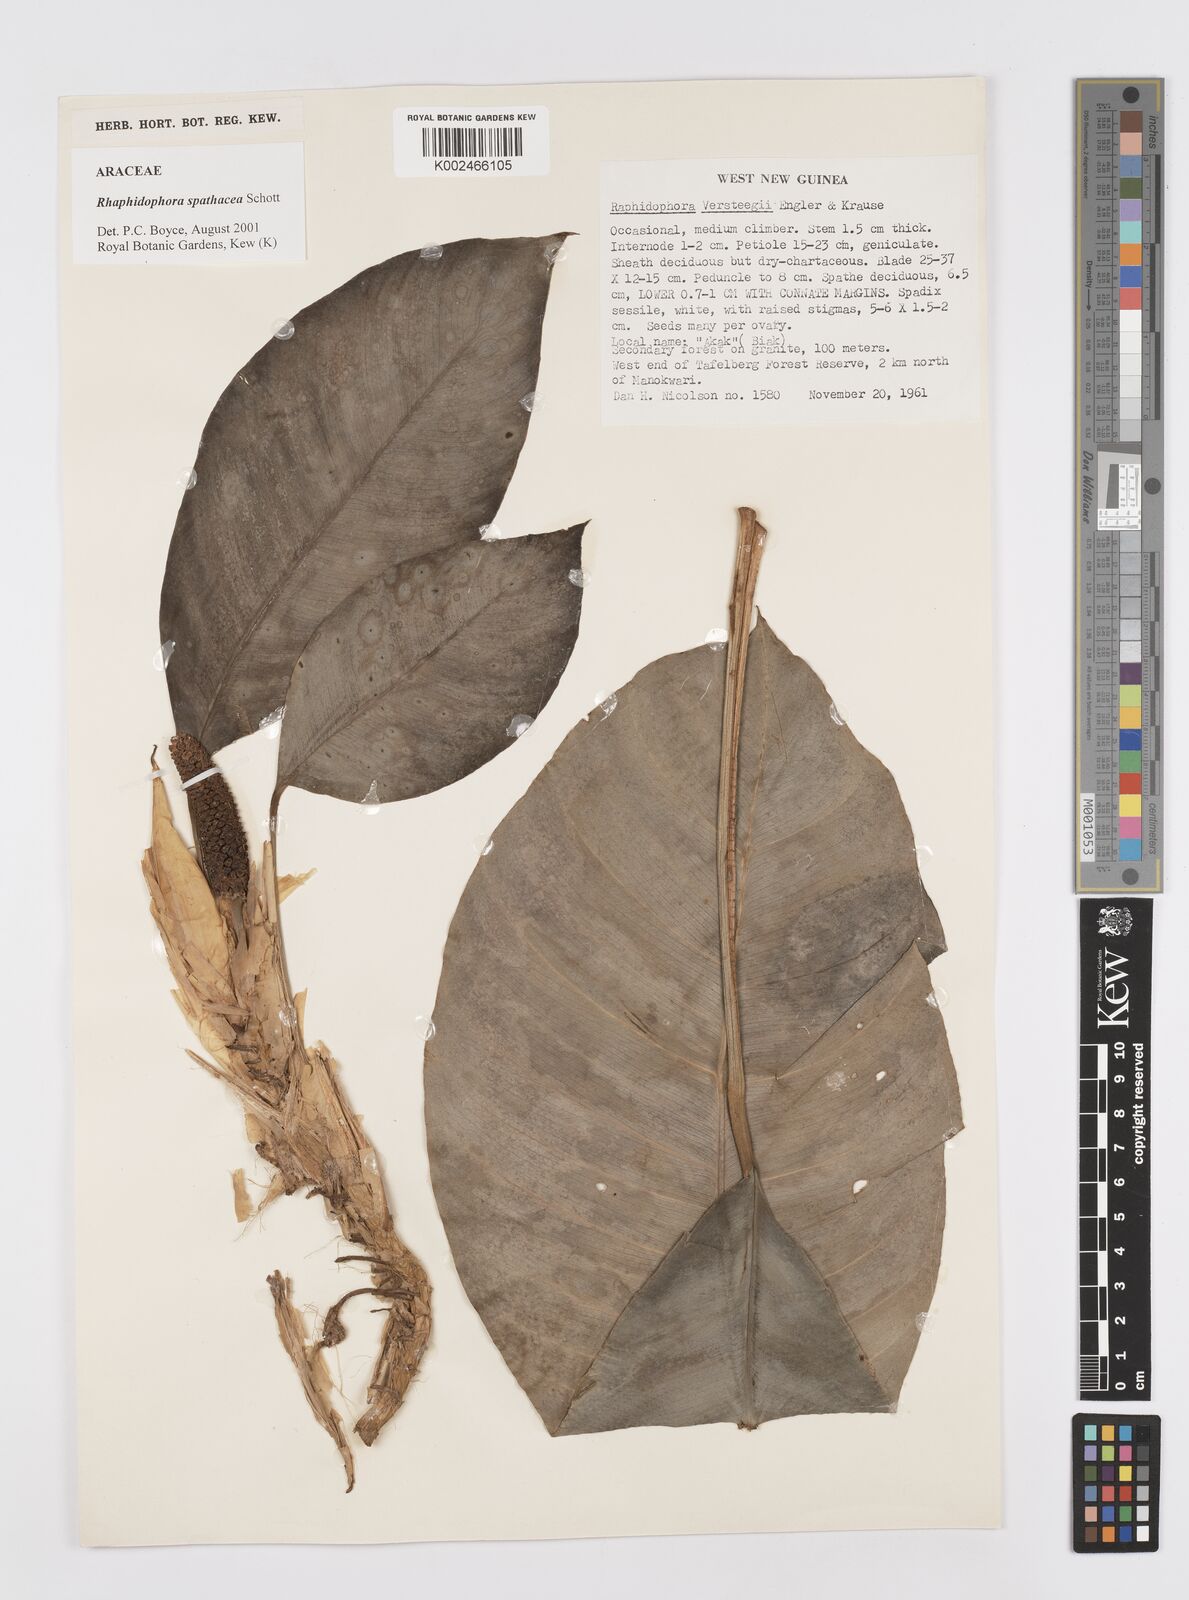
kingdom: Plantae
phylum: Tracheophyta
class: Liliopsida
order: Alismatales
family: Araceae
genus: Rhaphidophora
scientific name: Rhaphidophora spathacea
